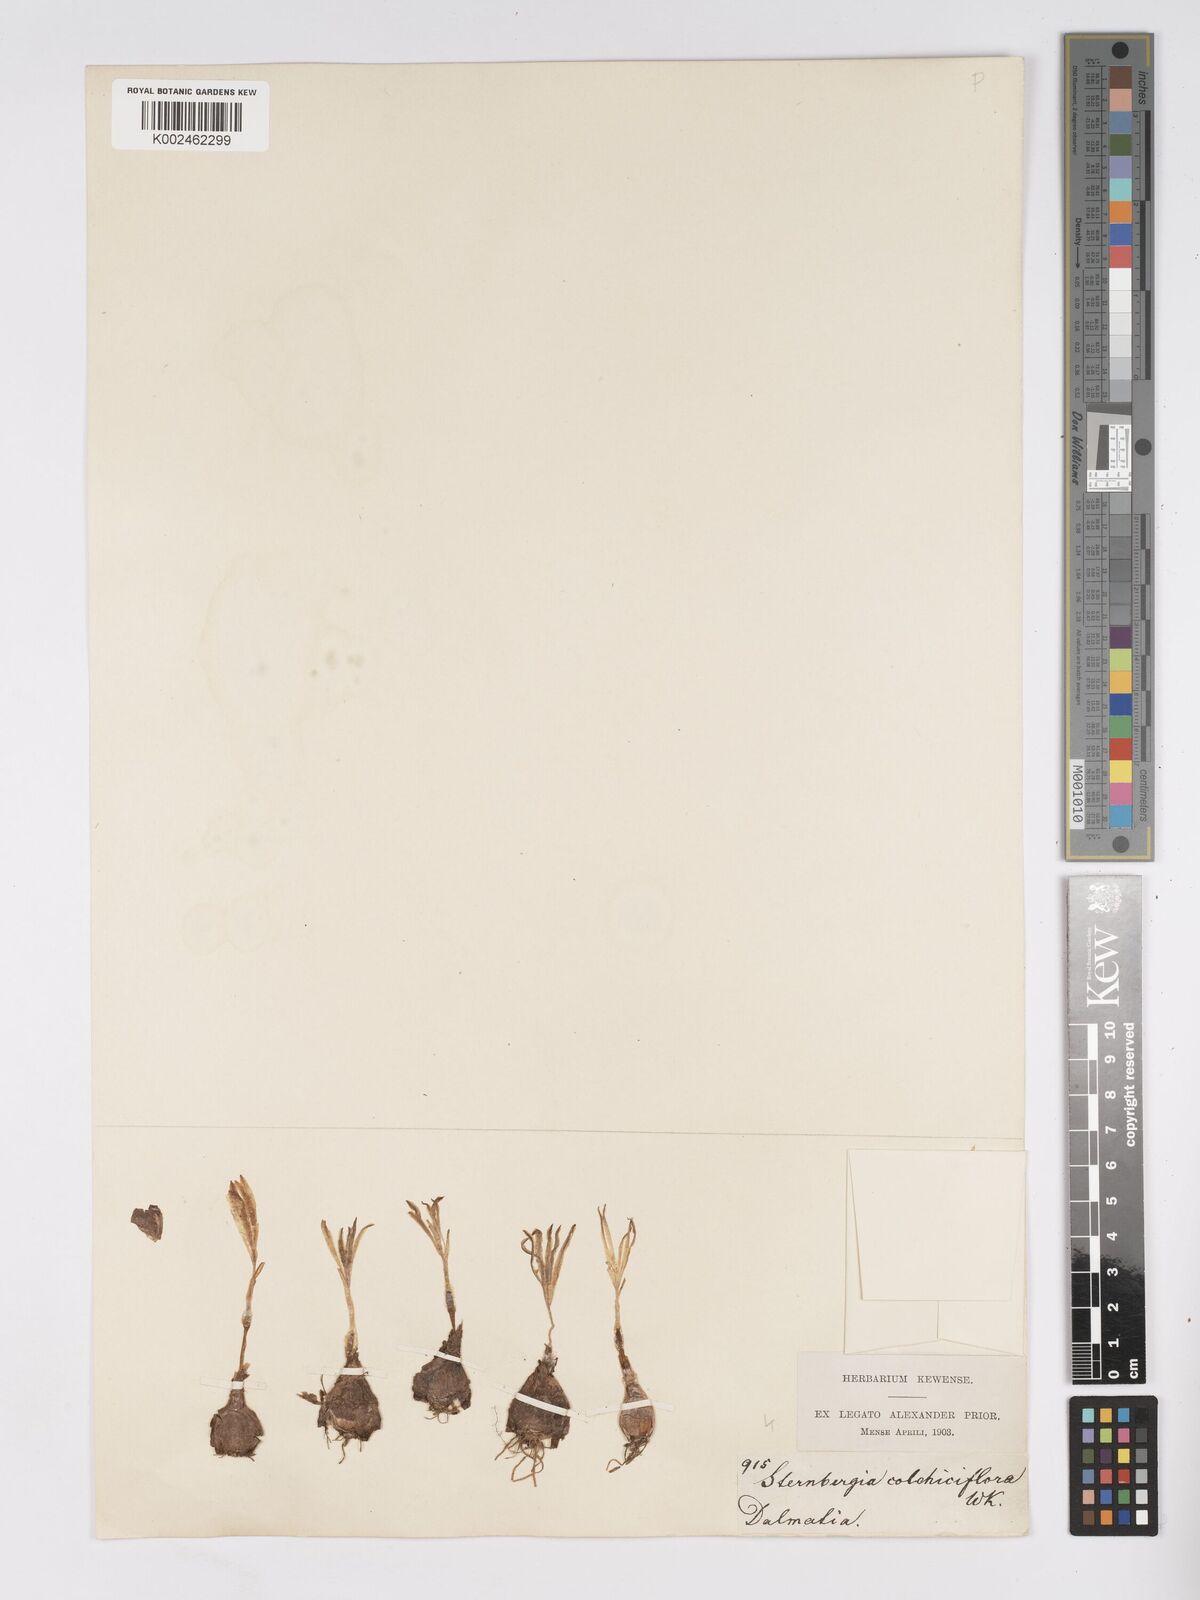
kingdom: Plantae
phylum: Tracheophyta
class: Liliopsida
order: Asparagales
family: Amaryllidaceae
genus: Sternbergia
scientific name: Sternbergia colchiciflora
